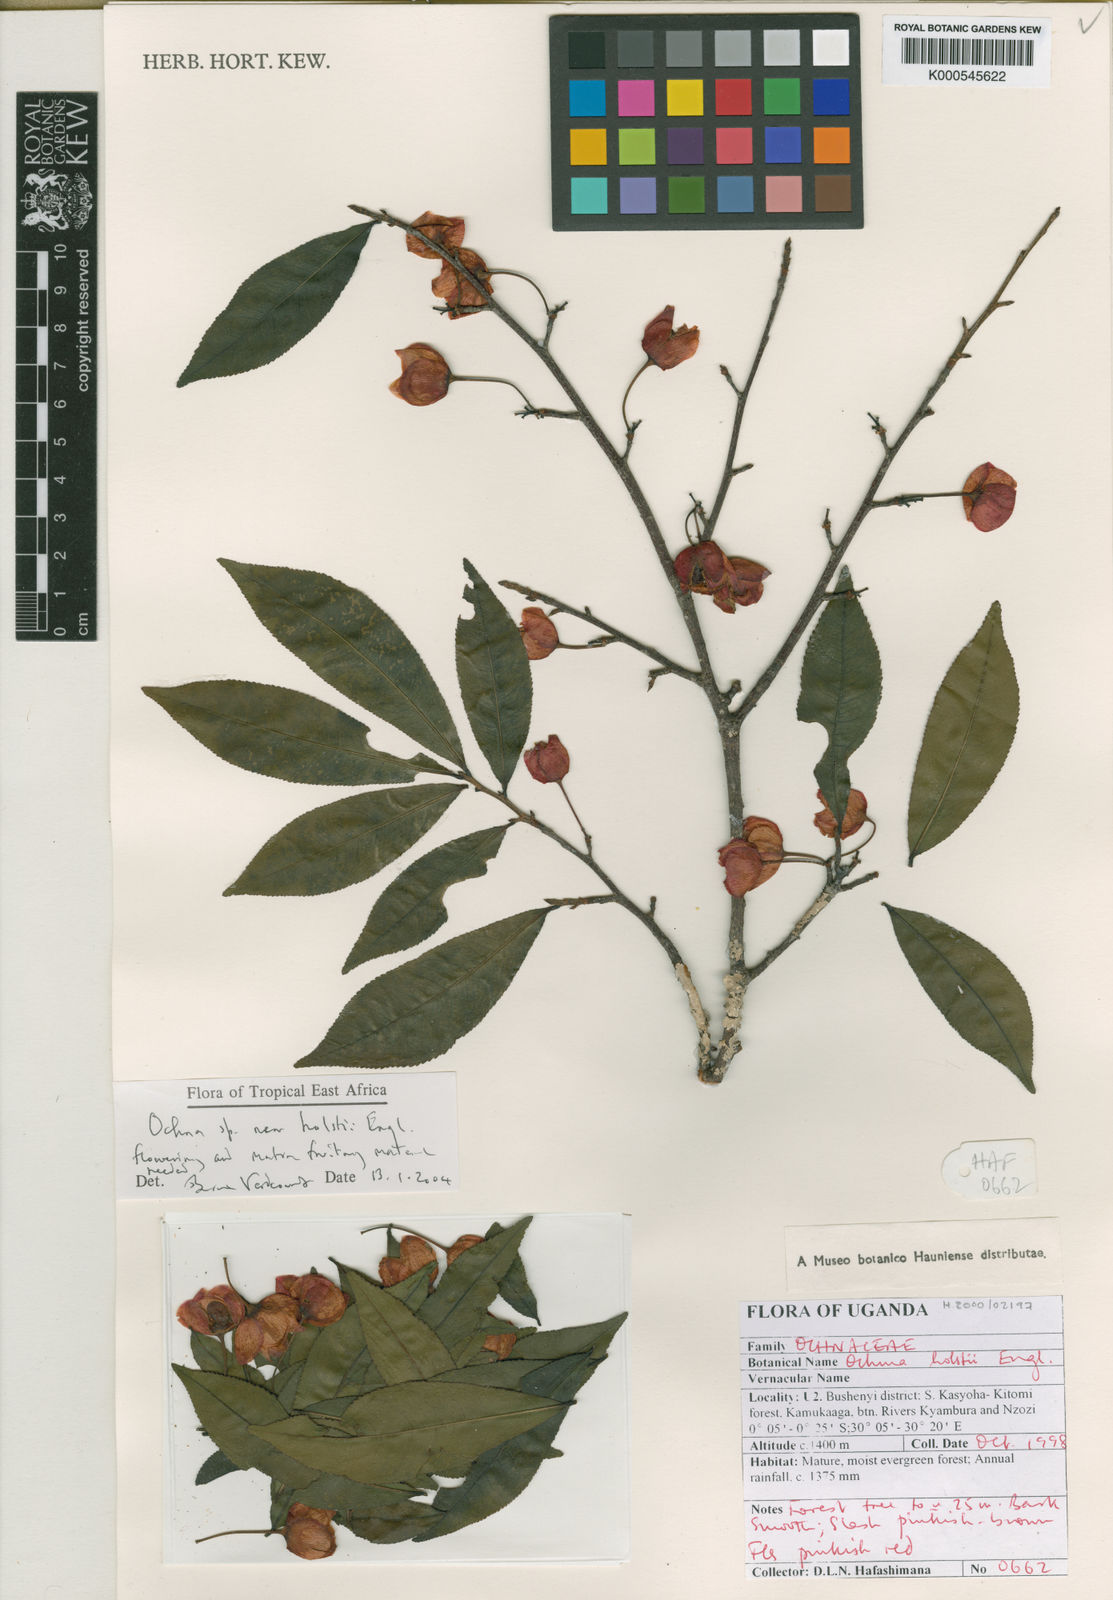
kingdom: Plantae
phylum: Tracheophyta
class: Magnoliopsida
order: Malpighiales
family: Ochnaceae
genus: Ochna
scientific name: Ochna holstii
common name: Red ironwood
